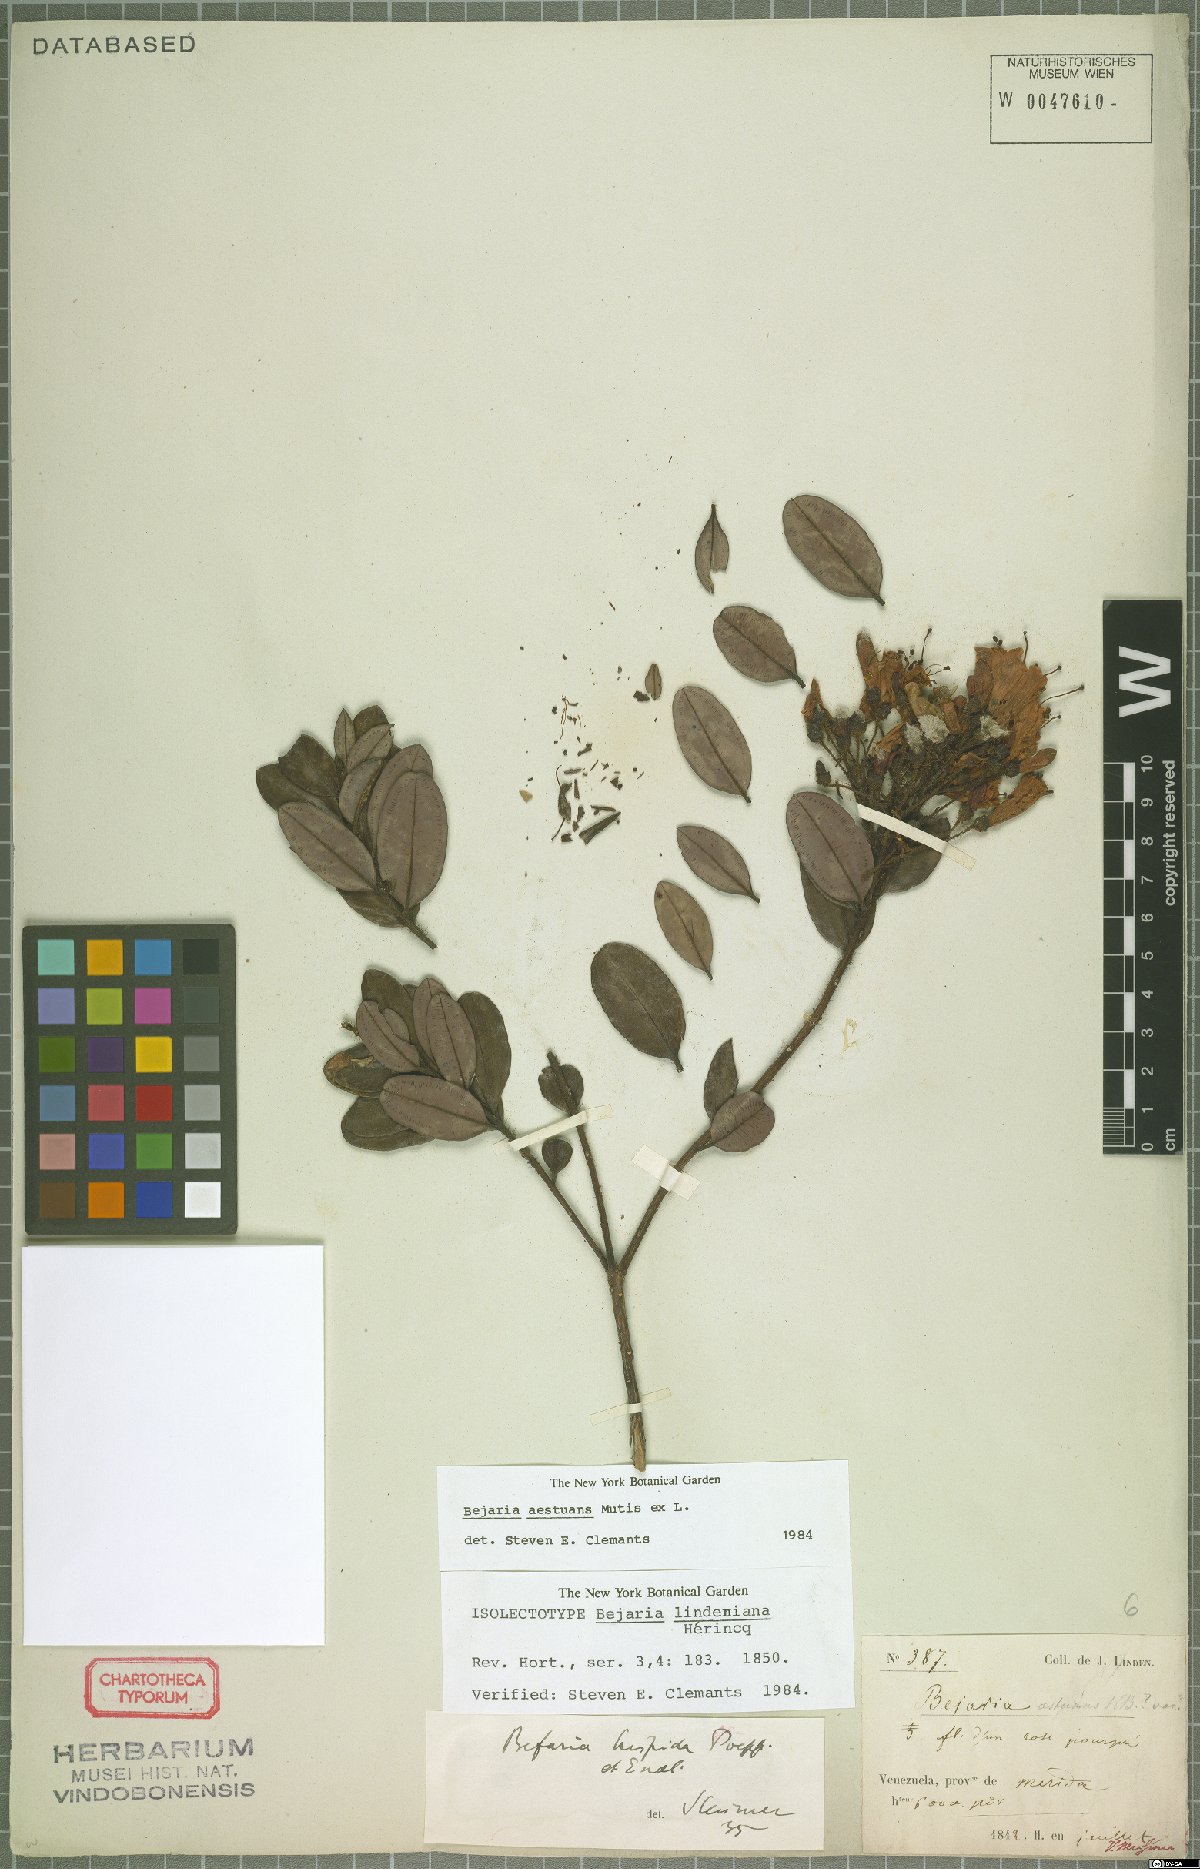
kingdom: Plantae
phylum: Tracheophyta
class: Magnoliopsida
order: Ericales
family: Ericaceae
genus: Bejaria
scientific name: Bejaria aestuans
